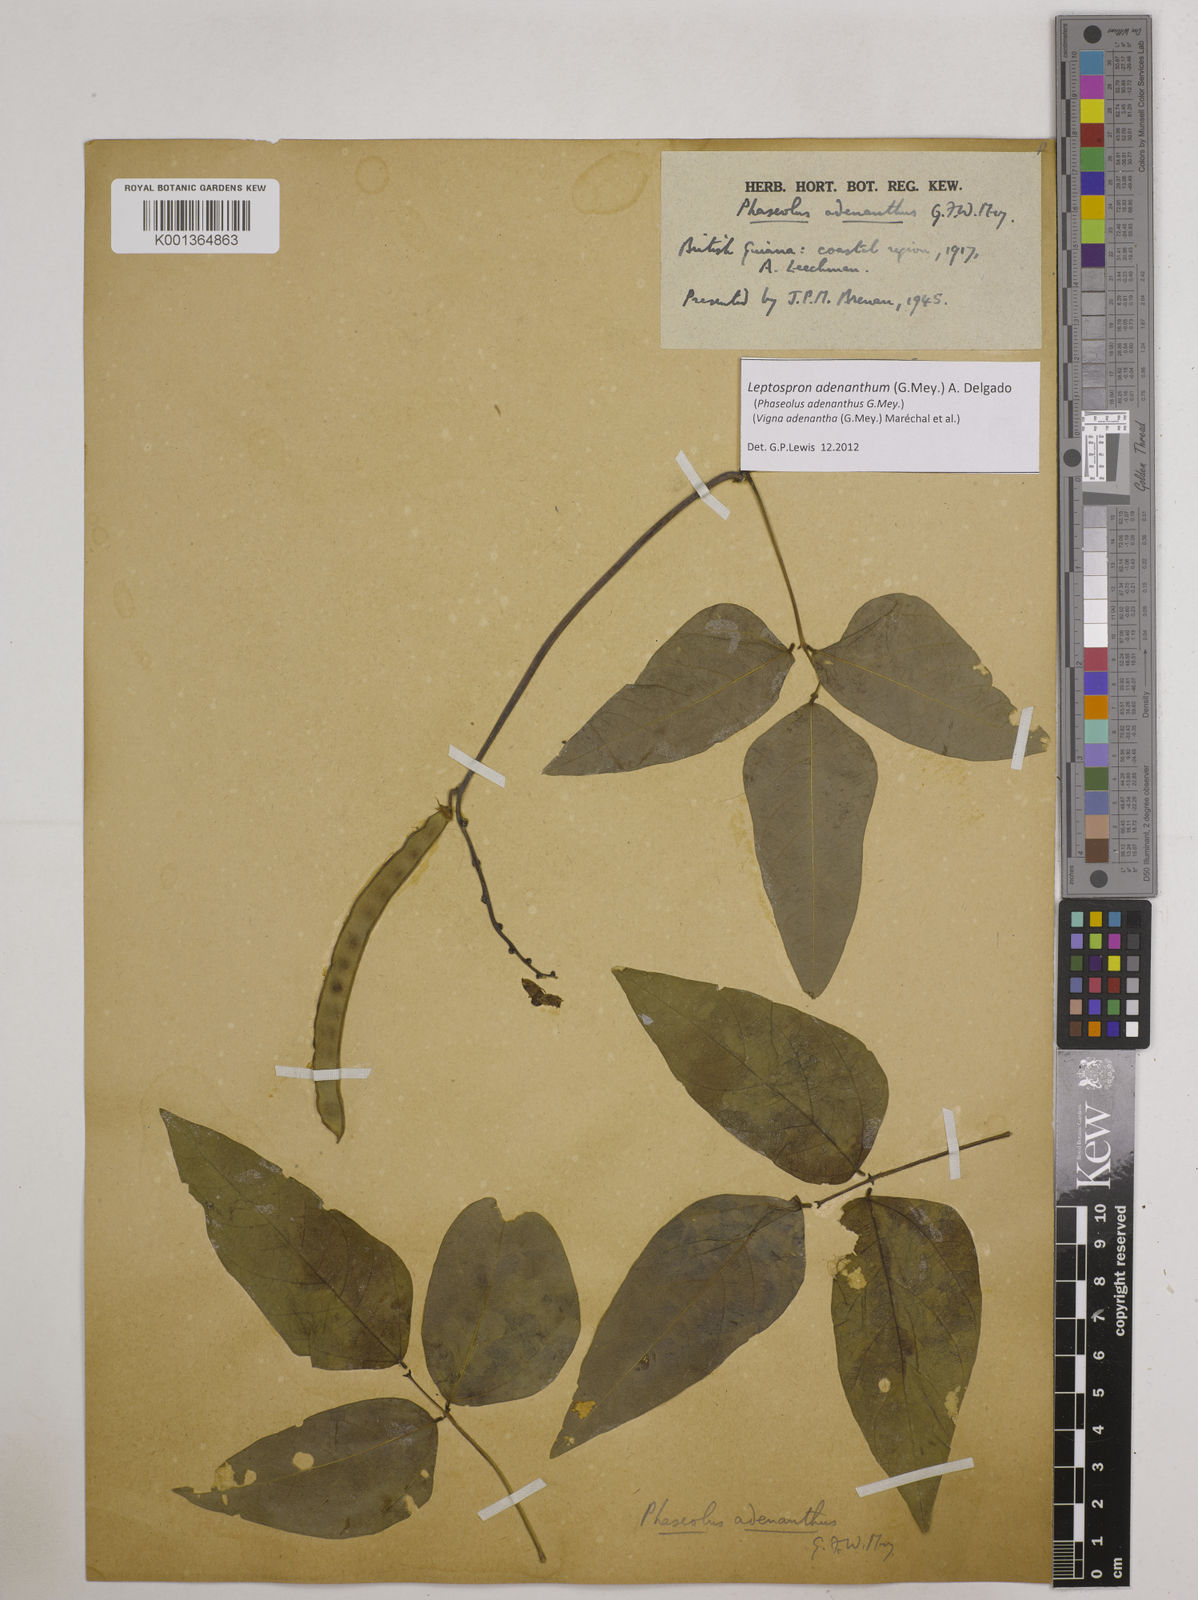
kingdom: Plantae
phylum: Tracheophyta
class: Magnoliopsida
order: Fabales
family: Fabaceae
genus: Leptospron
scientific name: Leptospron adenanthum
